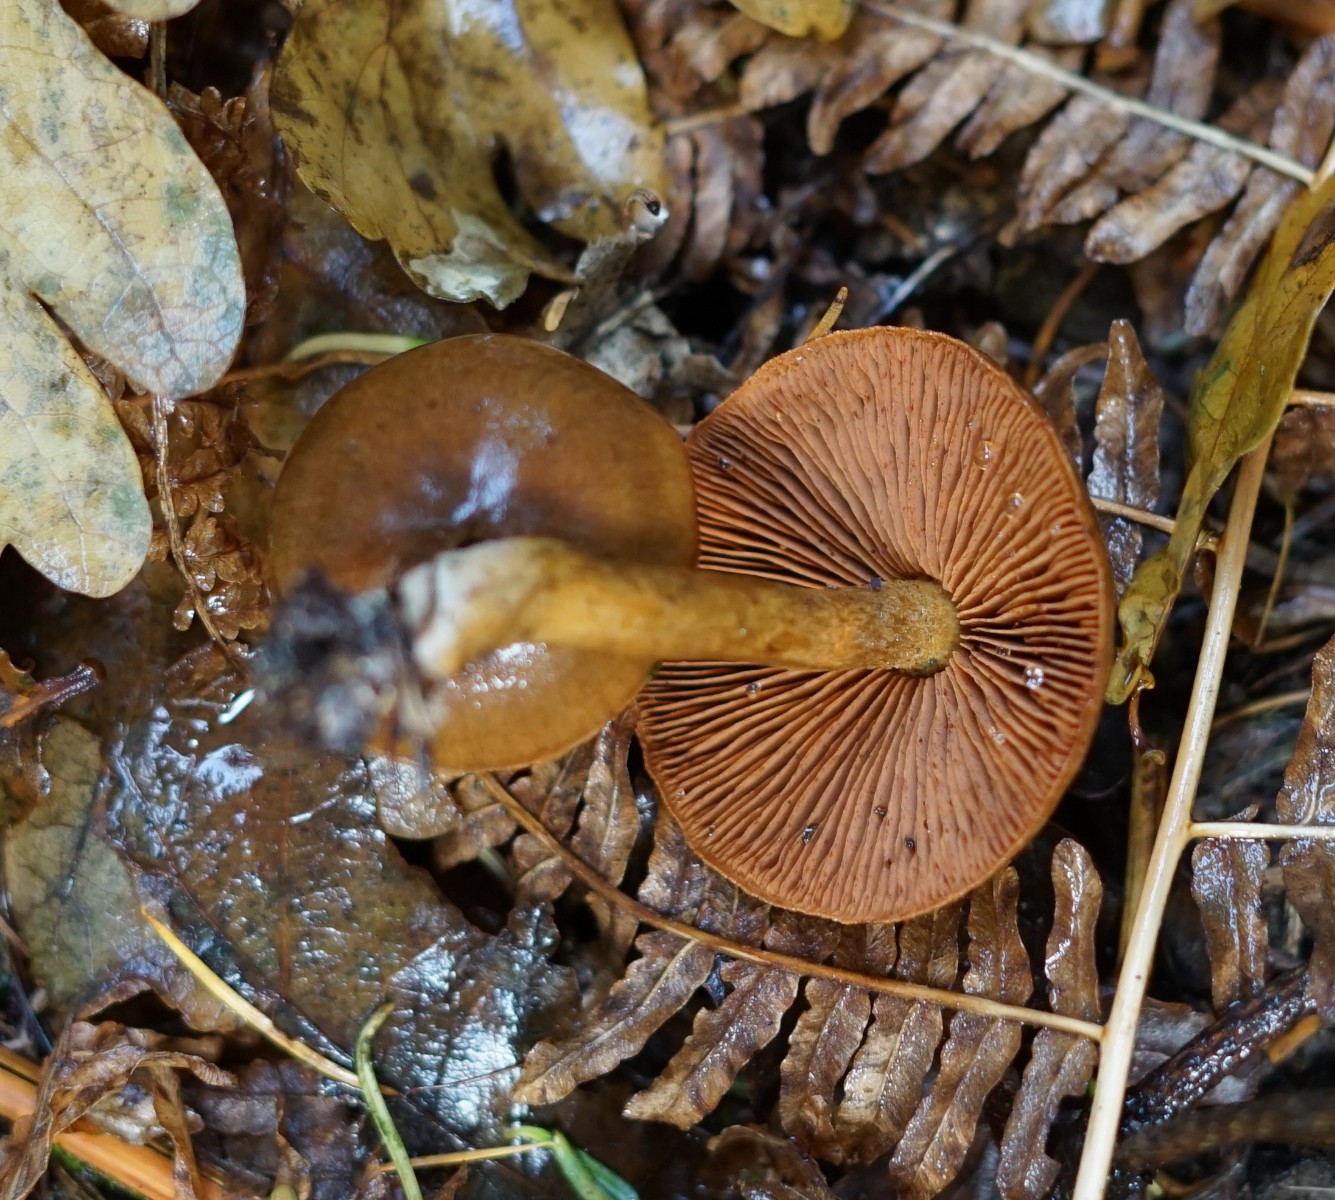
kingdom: Fungi
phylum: Basidiomycota
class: Agaricomycetes
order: Agaricales
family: Cortinariaceae
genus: Cortinarius
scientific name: Cortinarius
